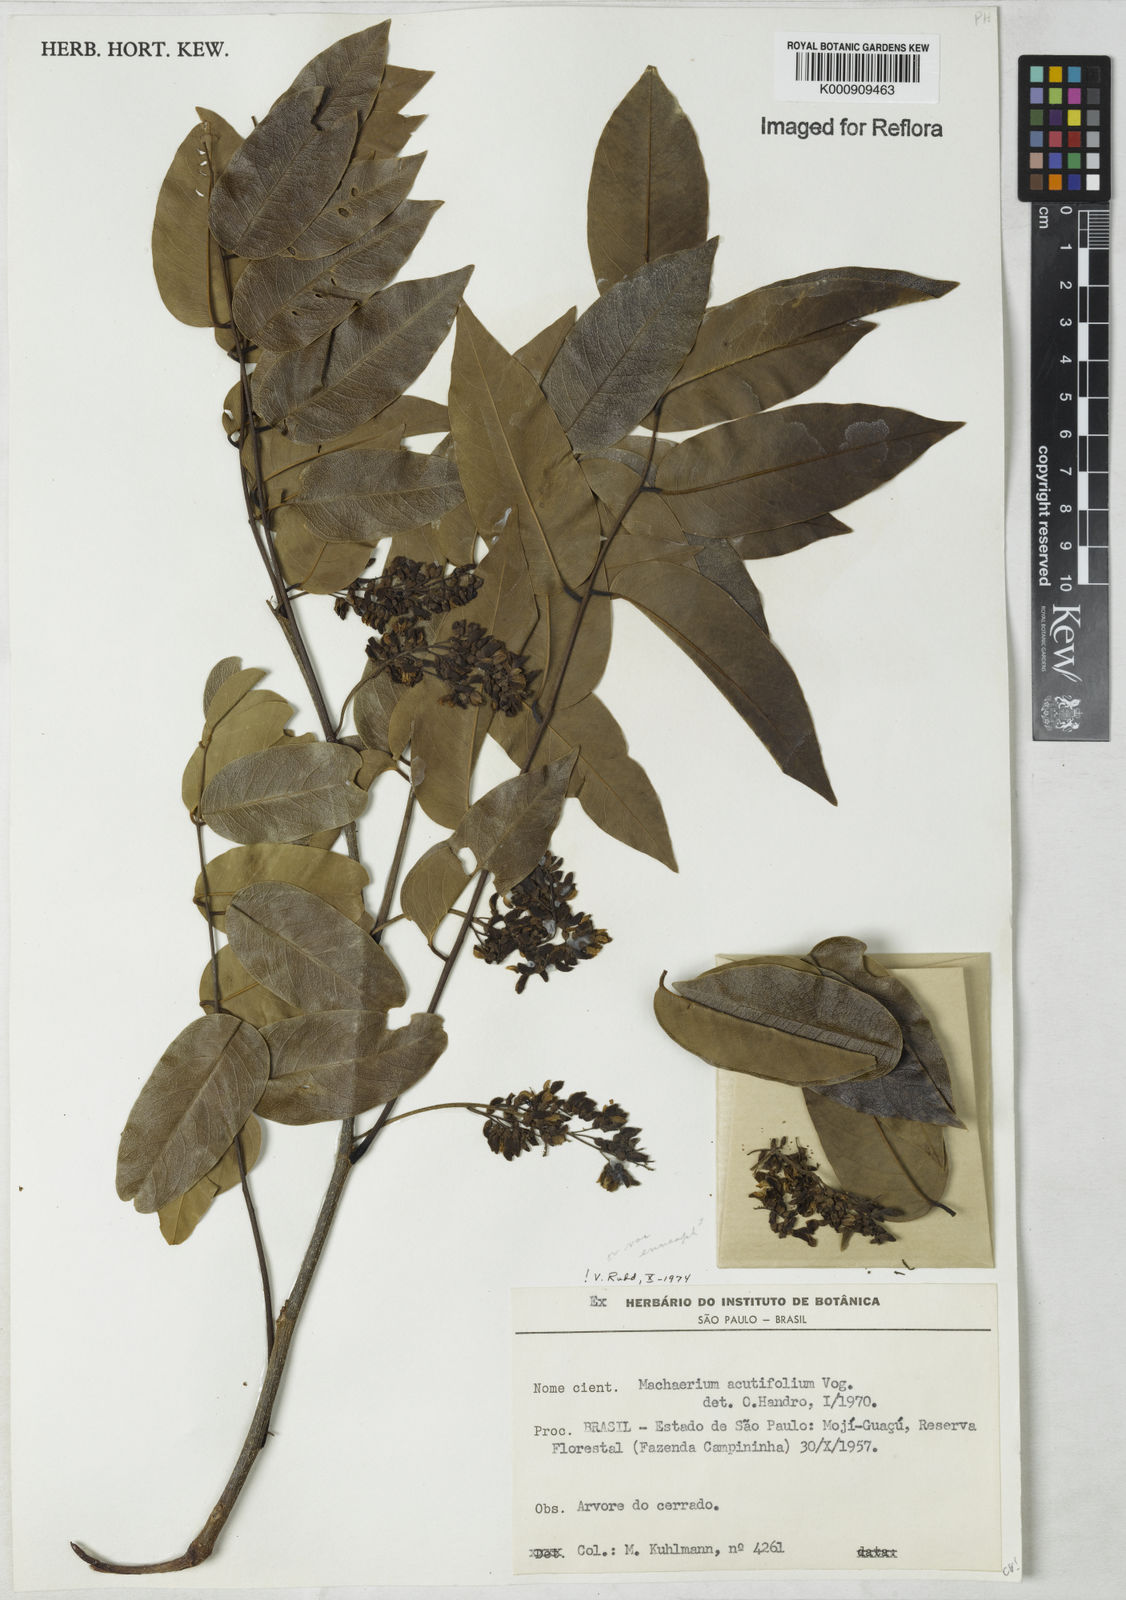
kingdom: Plantae
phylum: Tracheophyta
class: Magnoliopsida
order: Fabales
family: Fabaceae
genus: Machaerium
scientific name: Machaerium acutifolium
